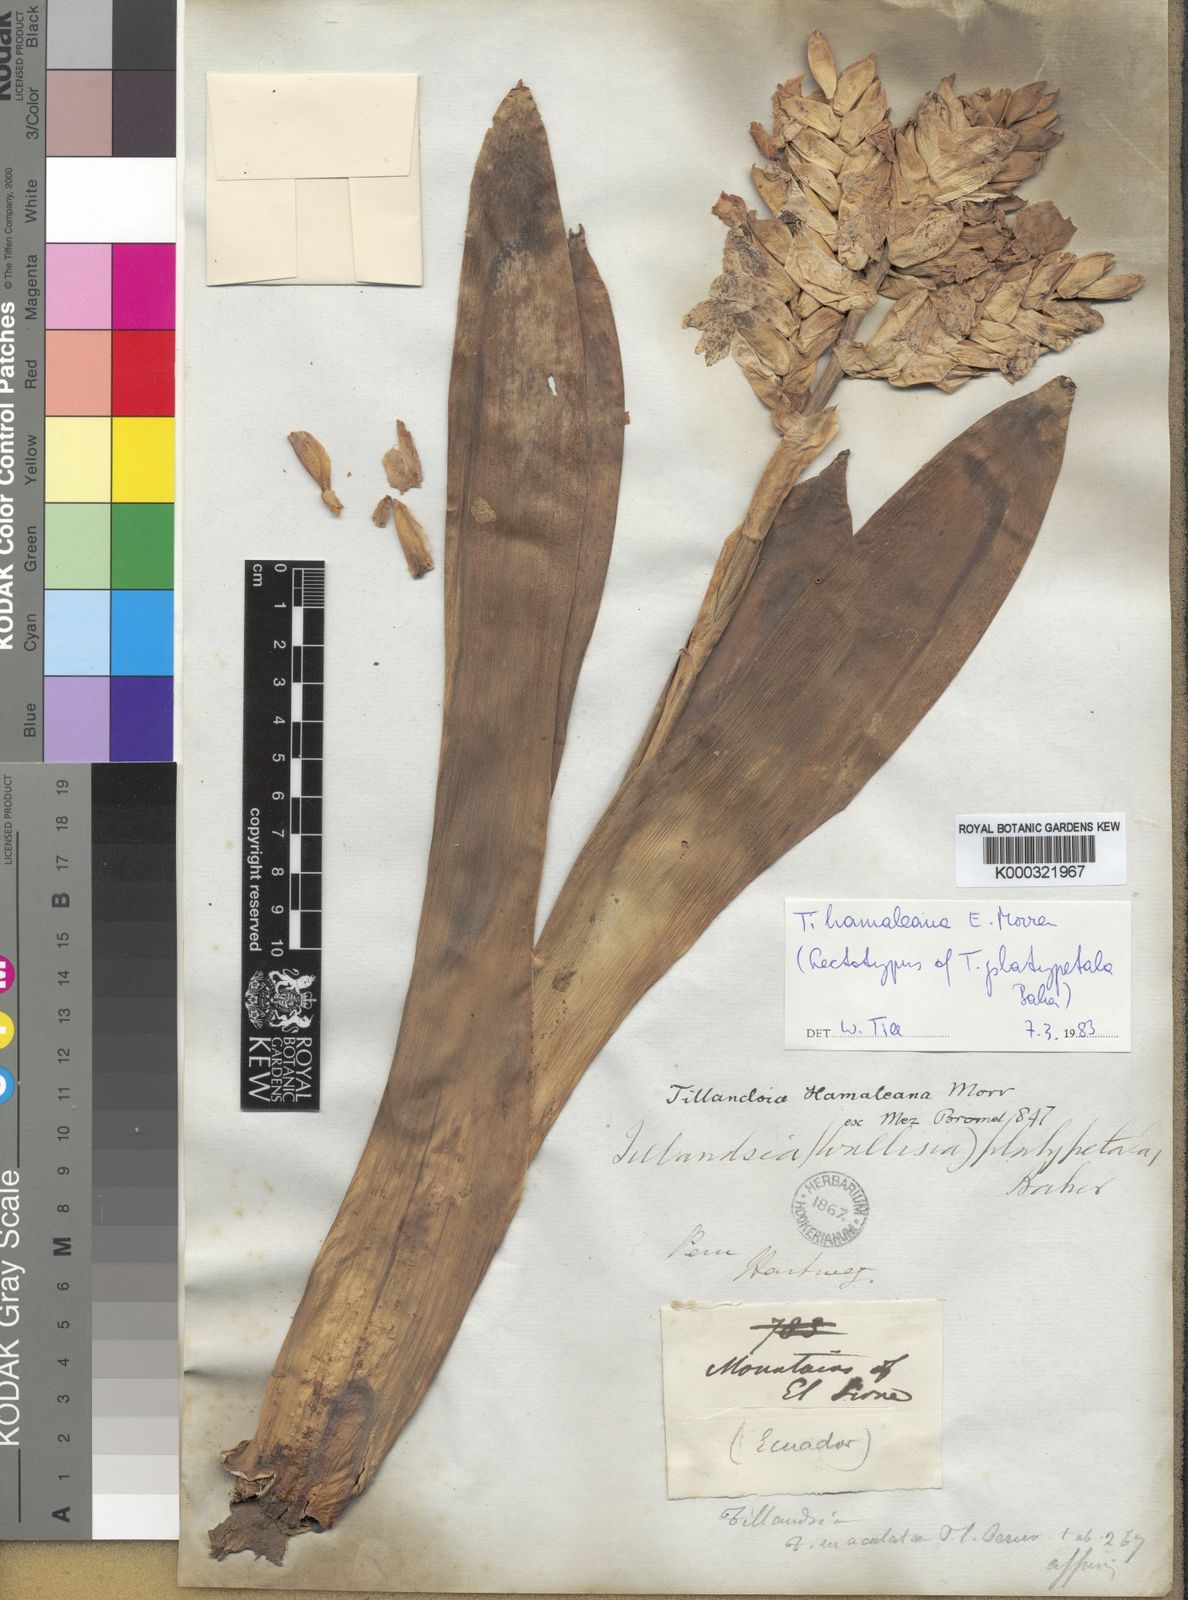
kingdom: Plantae
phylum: Tracheophyta
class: Liliopsida
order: Poales
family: Bromeliaceae
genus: Racinaea
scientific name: Racinaea hamaleana
